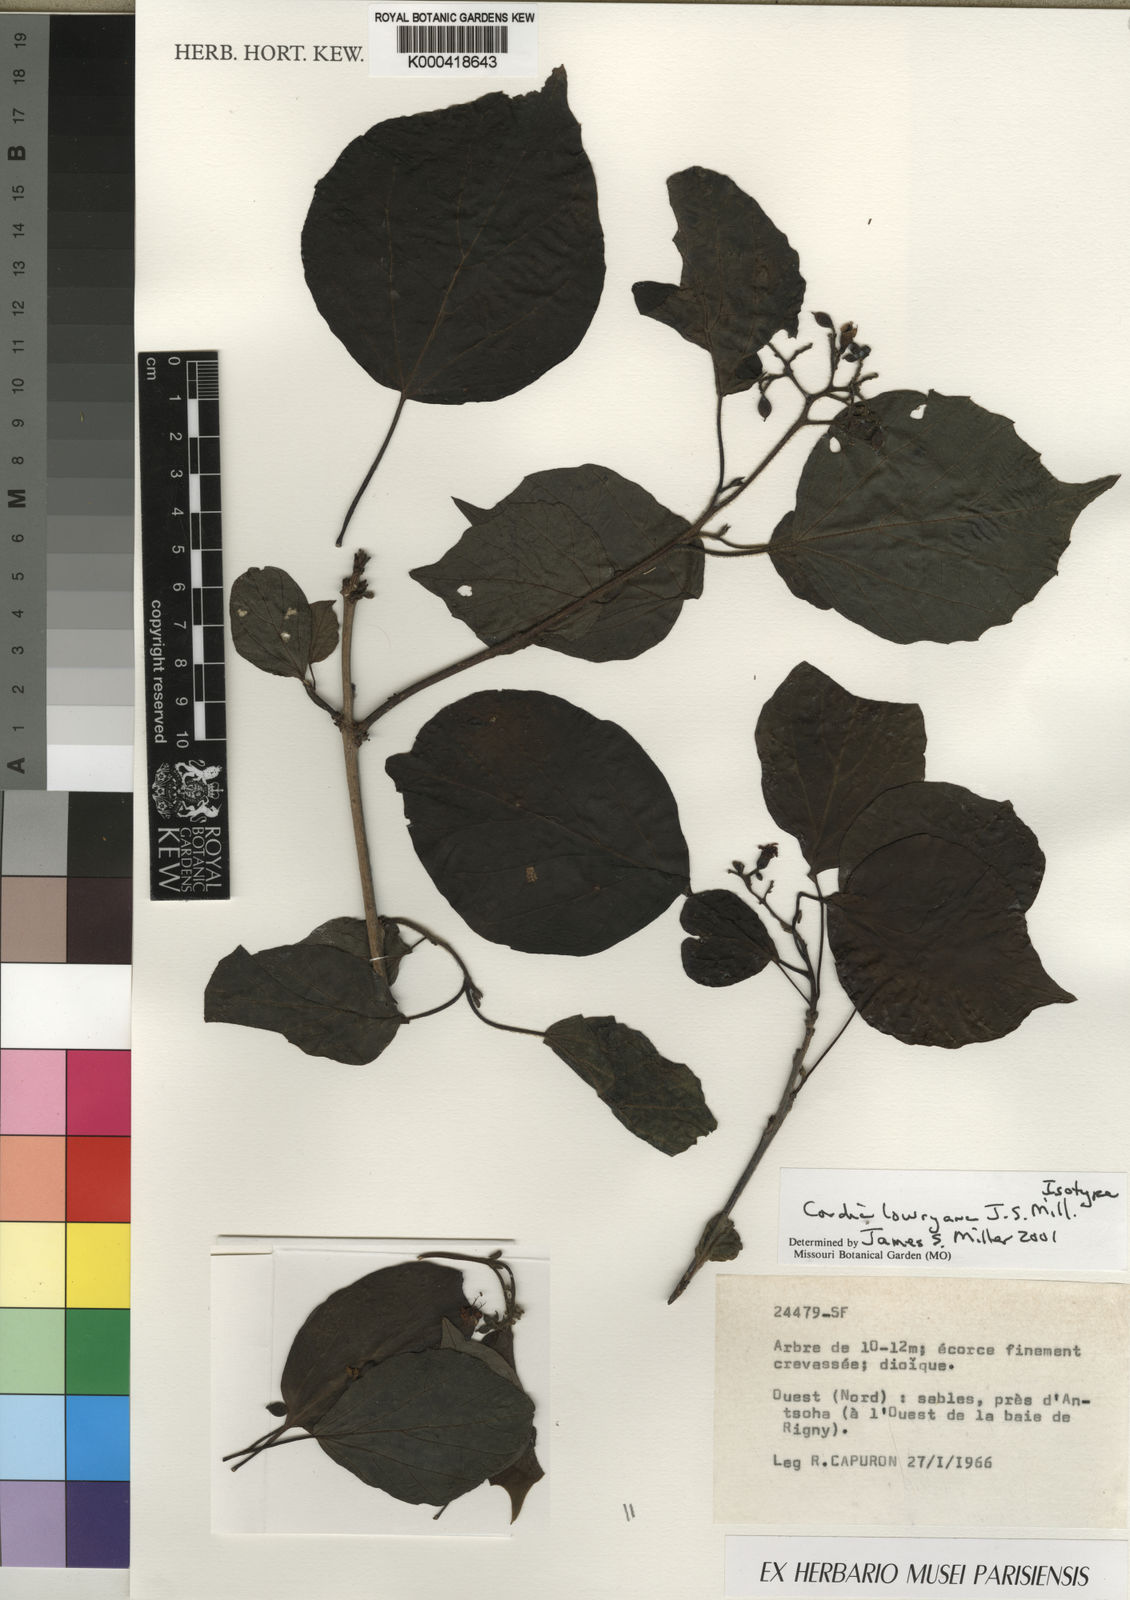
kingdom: Plantae
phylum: Tracheophyta
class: Magnoliopsida
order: Boraginales
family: Cordiaceae
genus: Cordia
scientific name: Cordia lowryana
